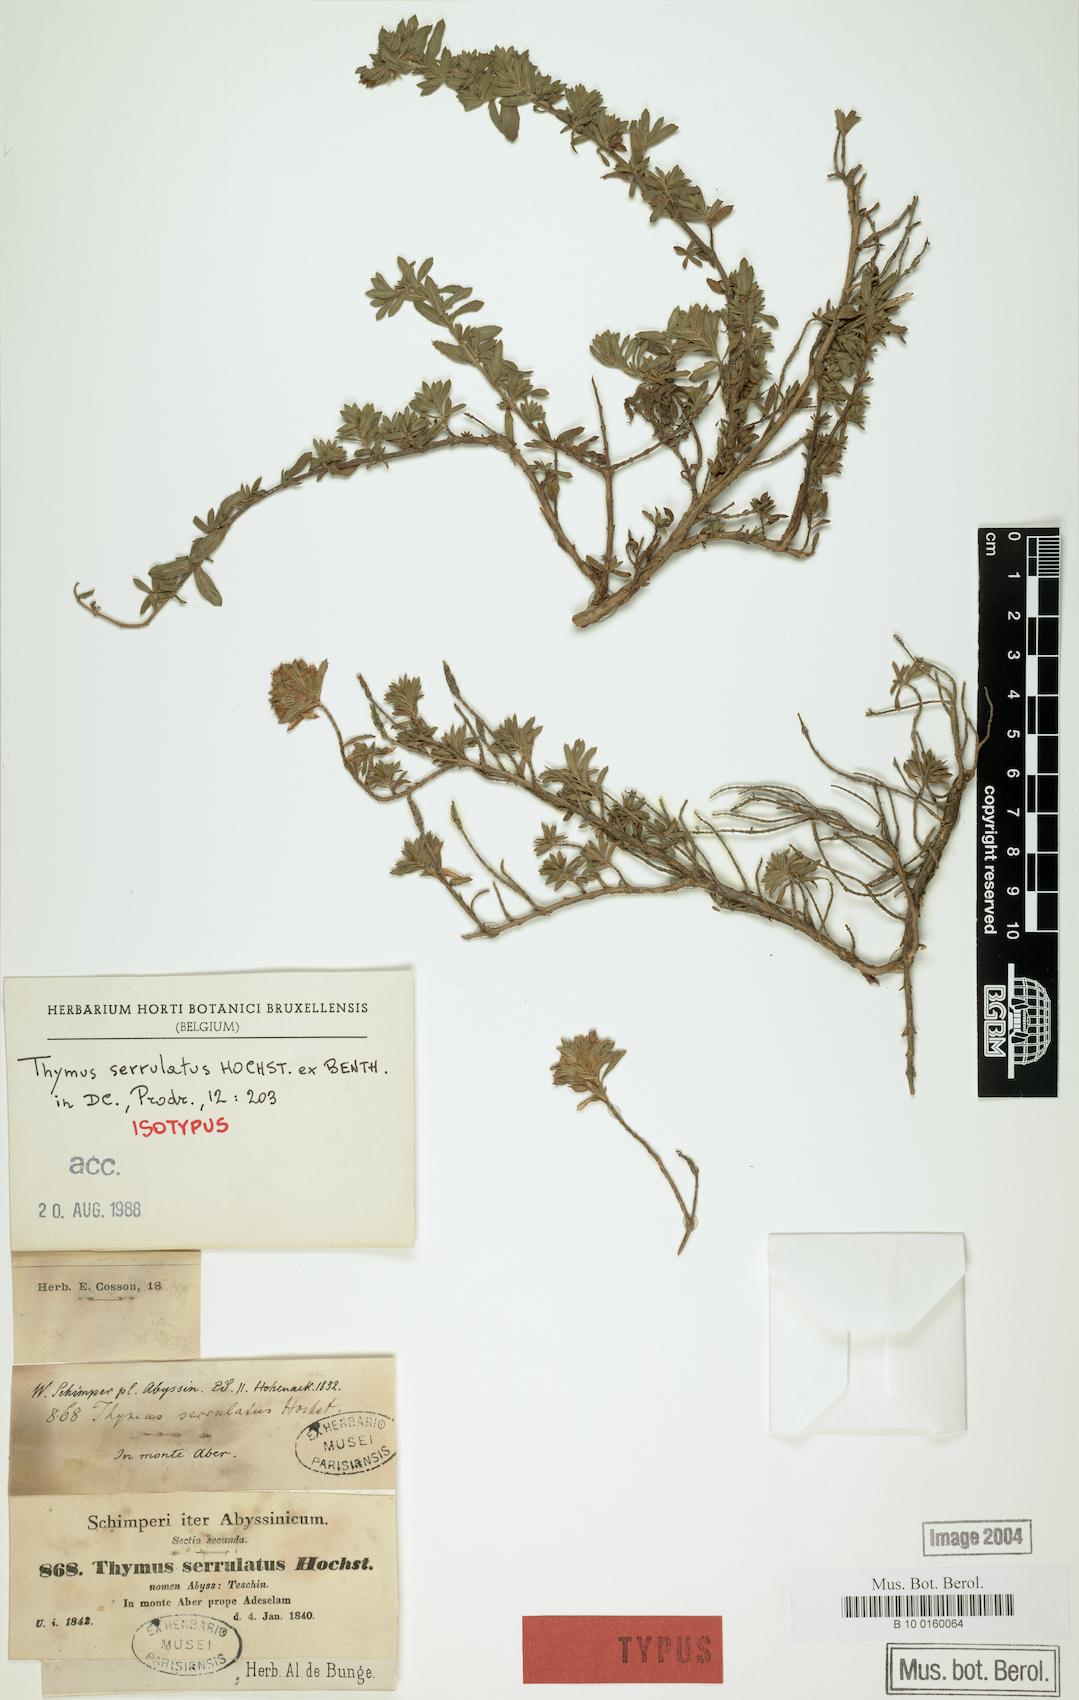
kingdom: Plantae
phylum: Tracheophyta
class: Magnoliopsida
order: Lamiales
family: Lamiaceae
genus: Thymus
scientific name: Thymus serrulatus
